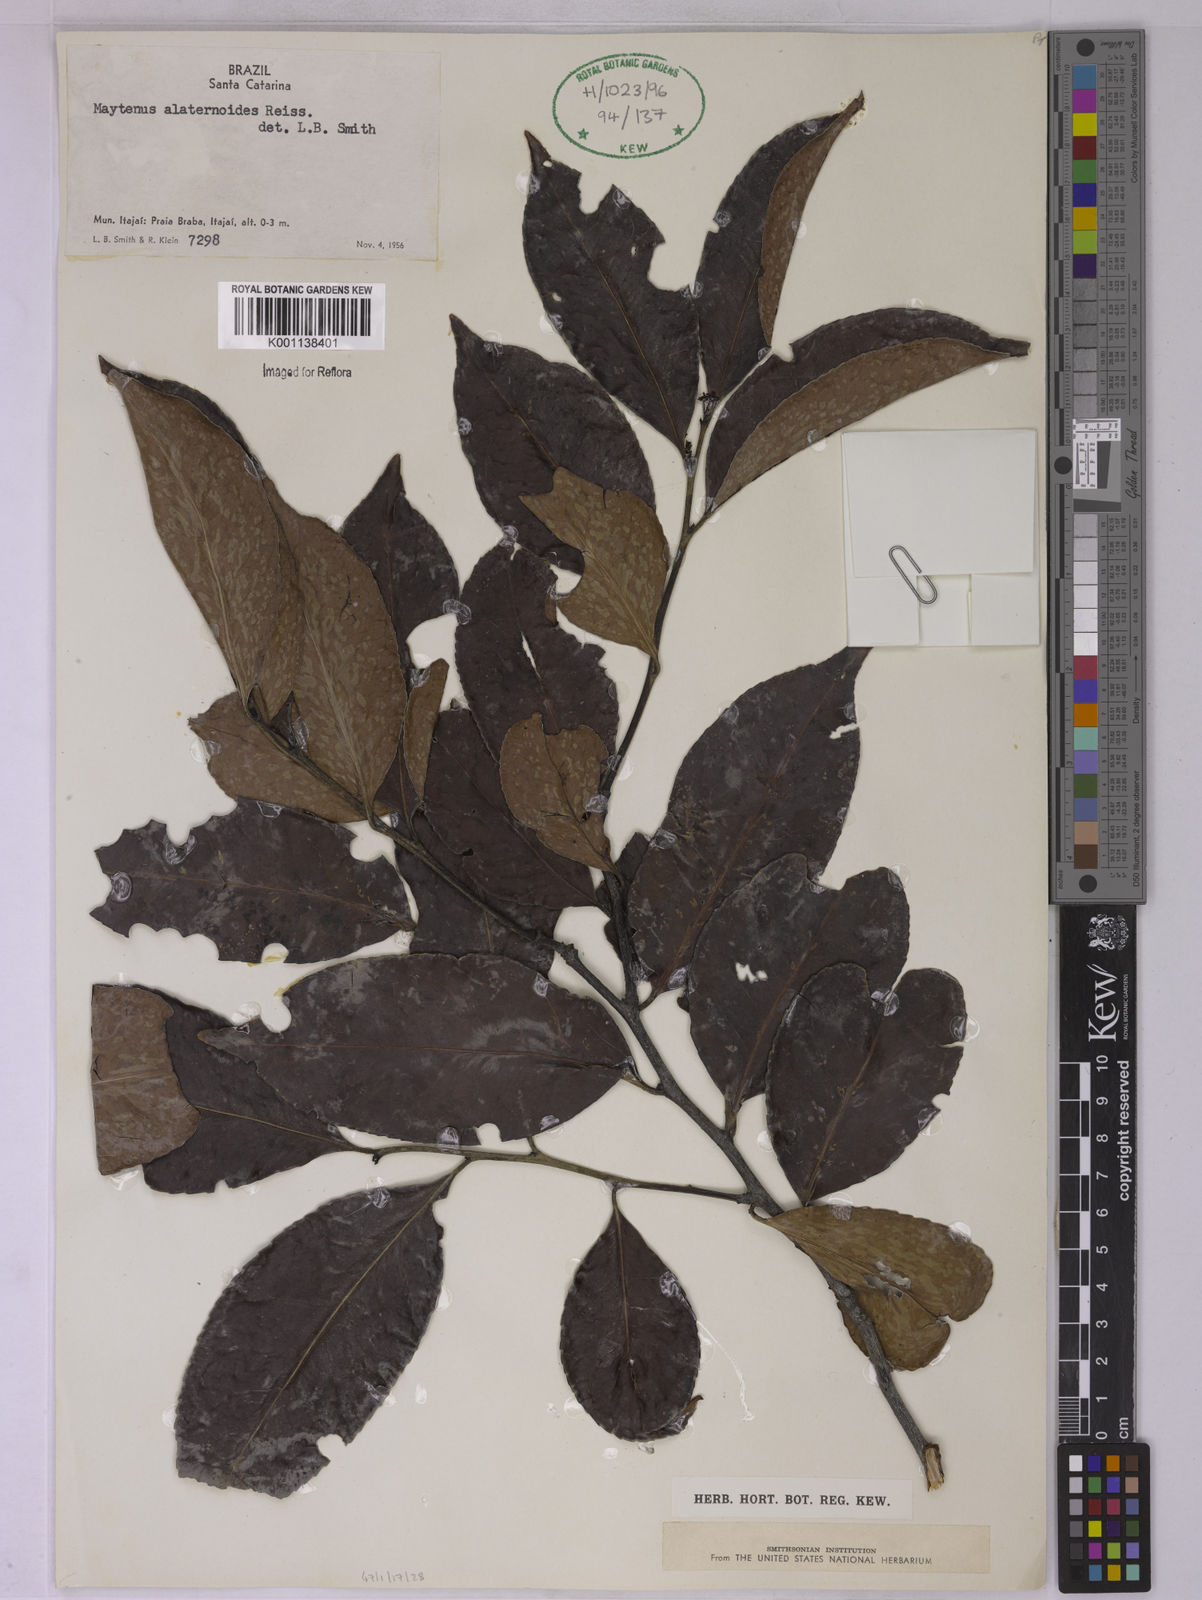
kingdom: Plantae
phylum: Tracheophyta
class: Magnoliopsida
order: Celastrales
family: Celastraceae
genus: Maytenus
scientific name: Maytenus alaternoides
